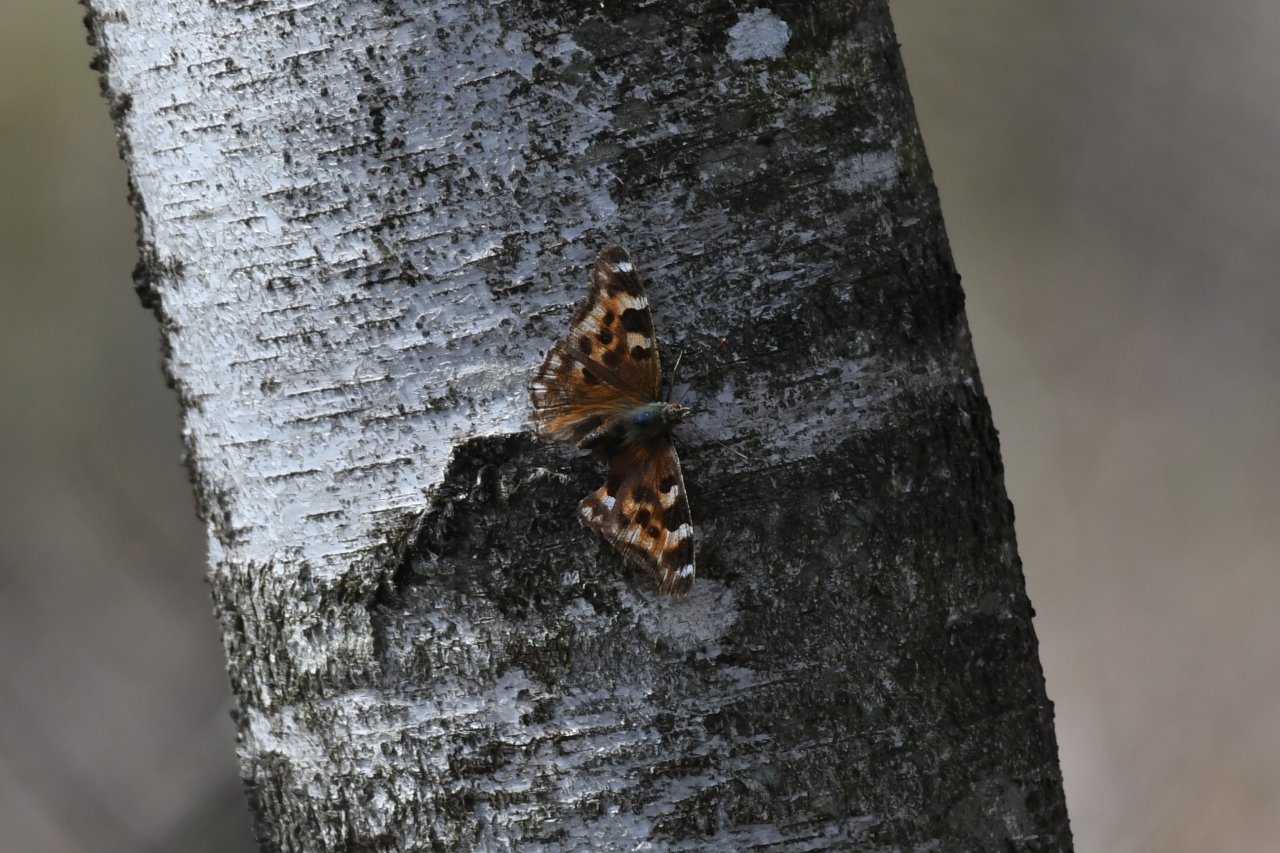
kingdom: Animalia
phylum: Arthropoda
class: Insecta
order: Lepidoptera
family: Nymphalidae
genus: Polygonia
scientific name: Polygonia vaualbum
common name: Compton Tortoiseshell
